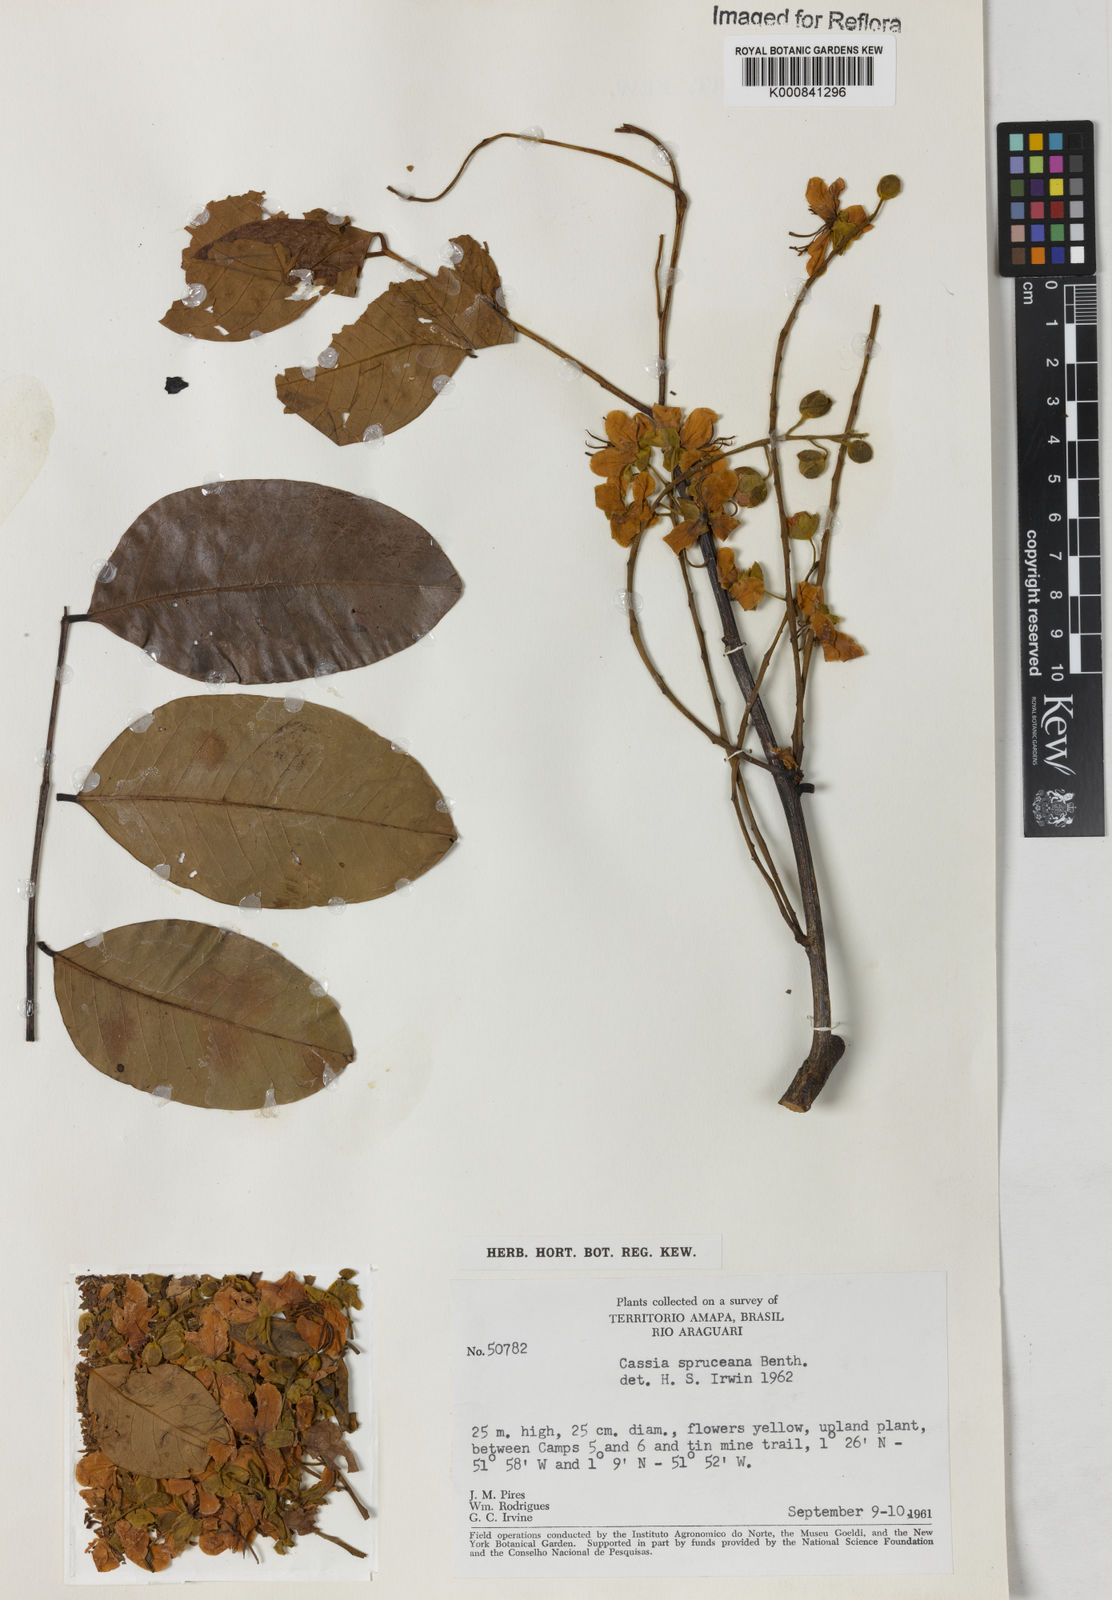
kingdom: Plantae
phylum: Tracheophyta
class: Magnoliopsida
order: Fabales
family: Fabaceae
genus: Cassia
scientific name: Cassia spruceana
